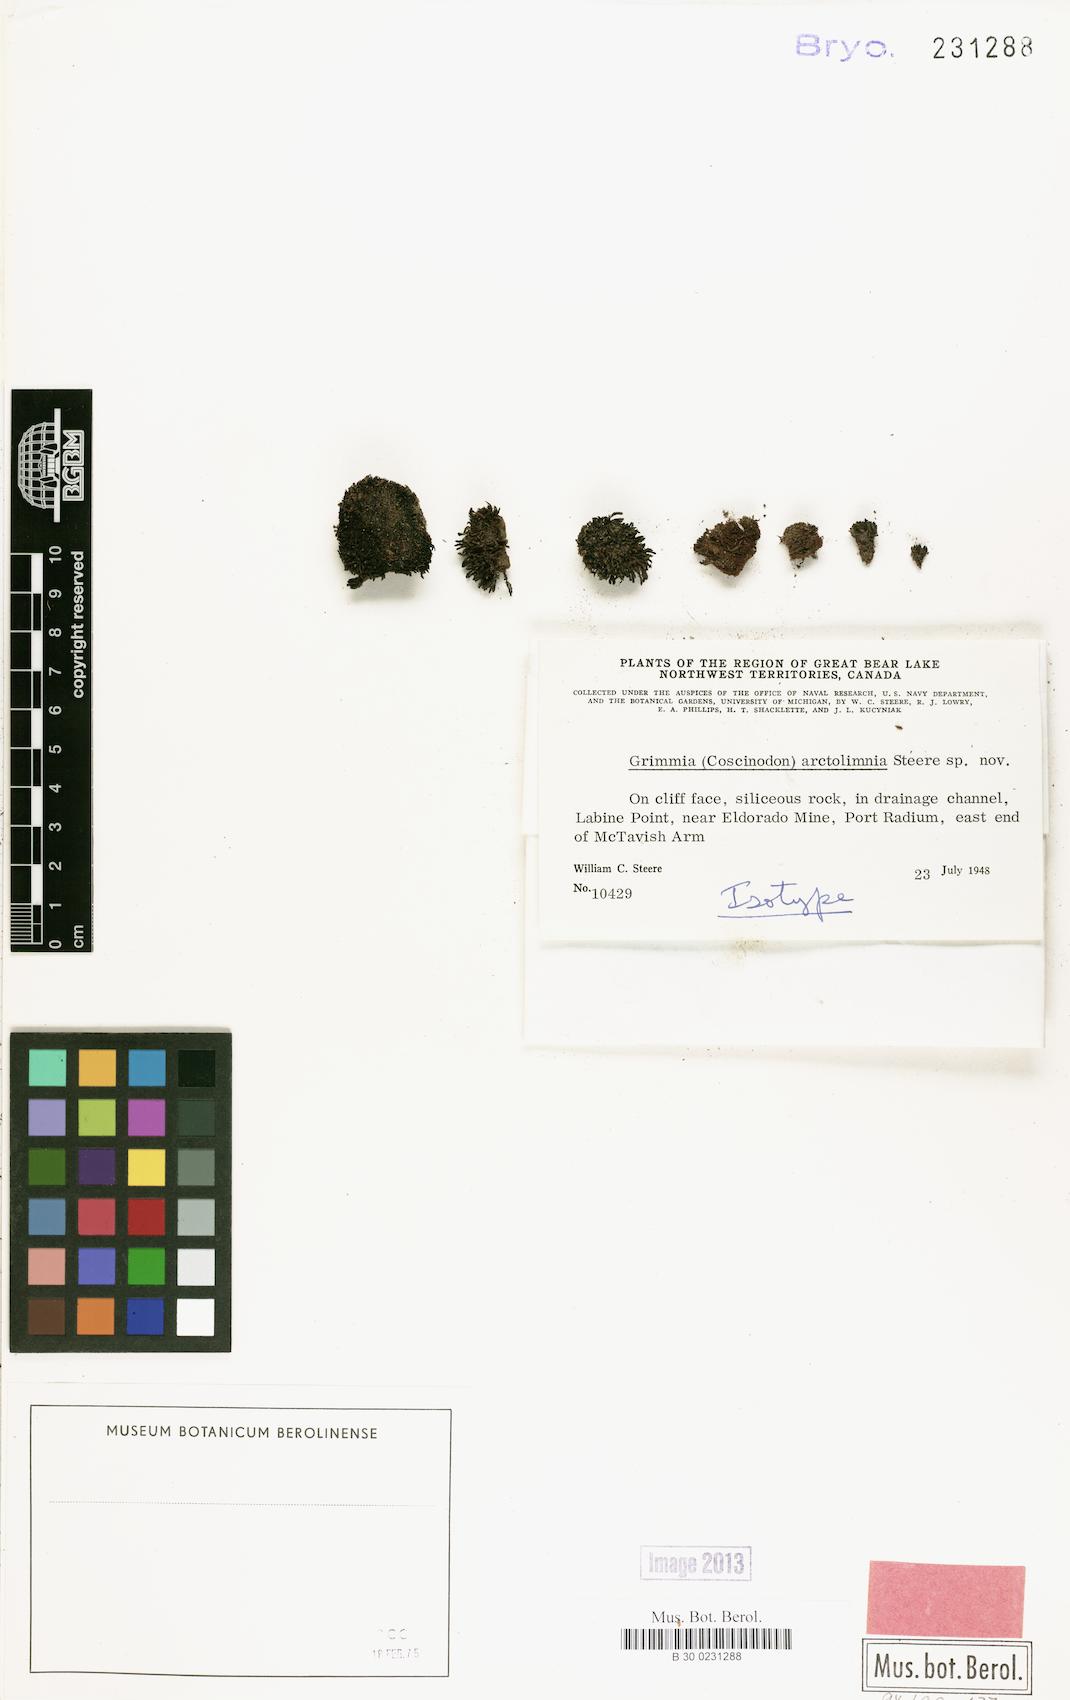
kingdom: Plantae
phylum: Bryophyta
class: Bryopsida
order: Grimmiales
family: Grimmiaceae
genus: Coscinodon
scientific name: Coscinodon arctolimnius
